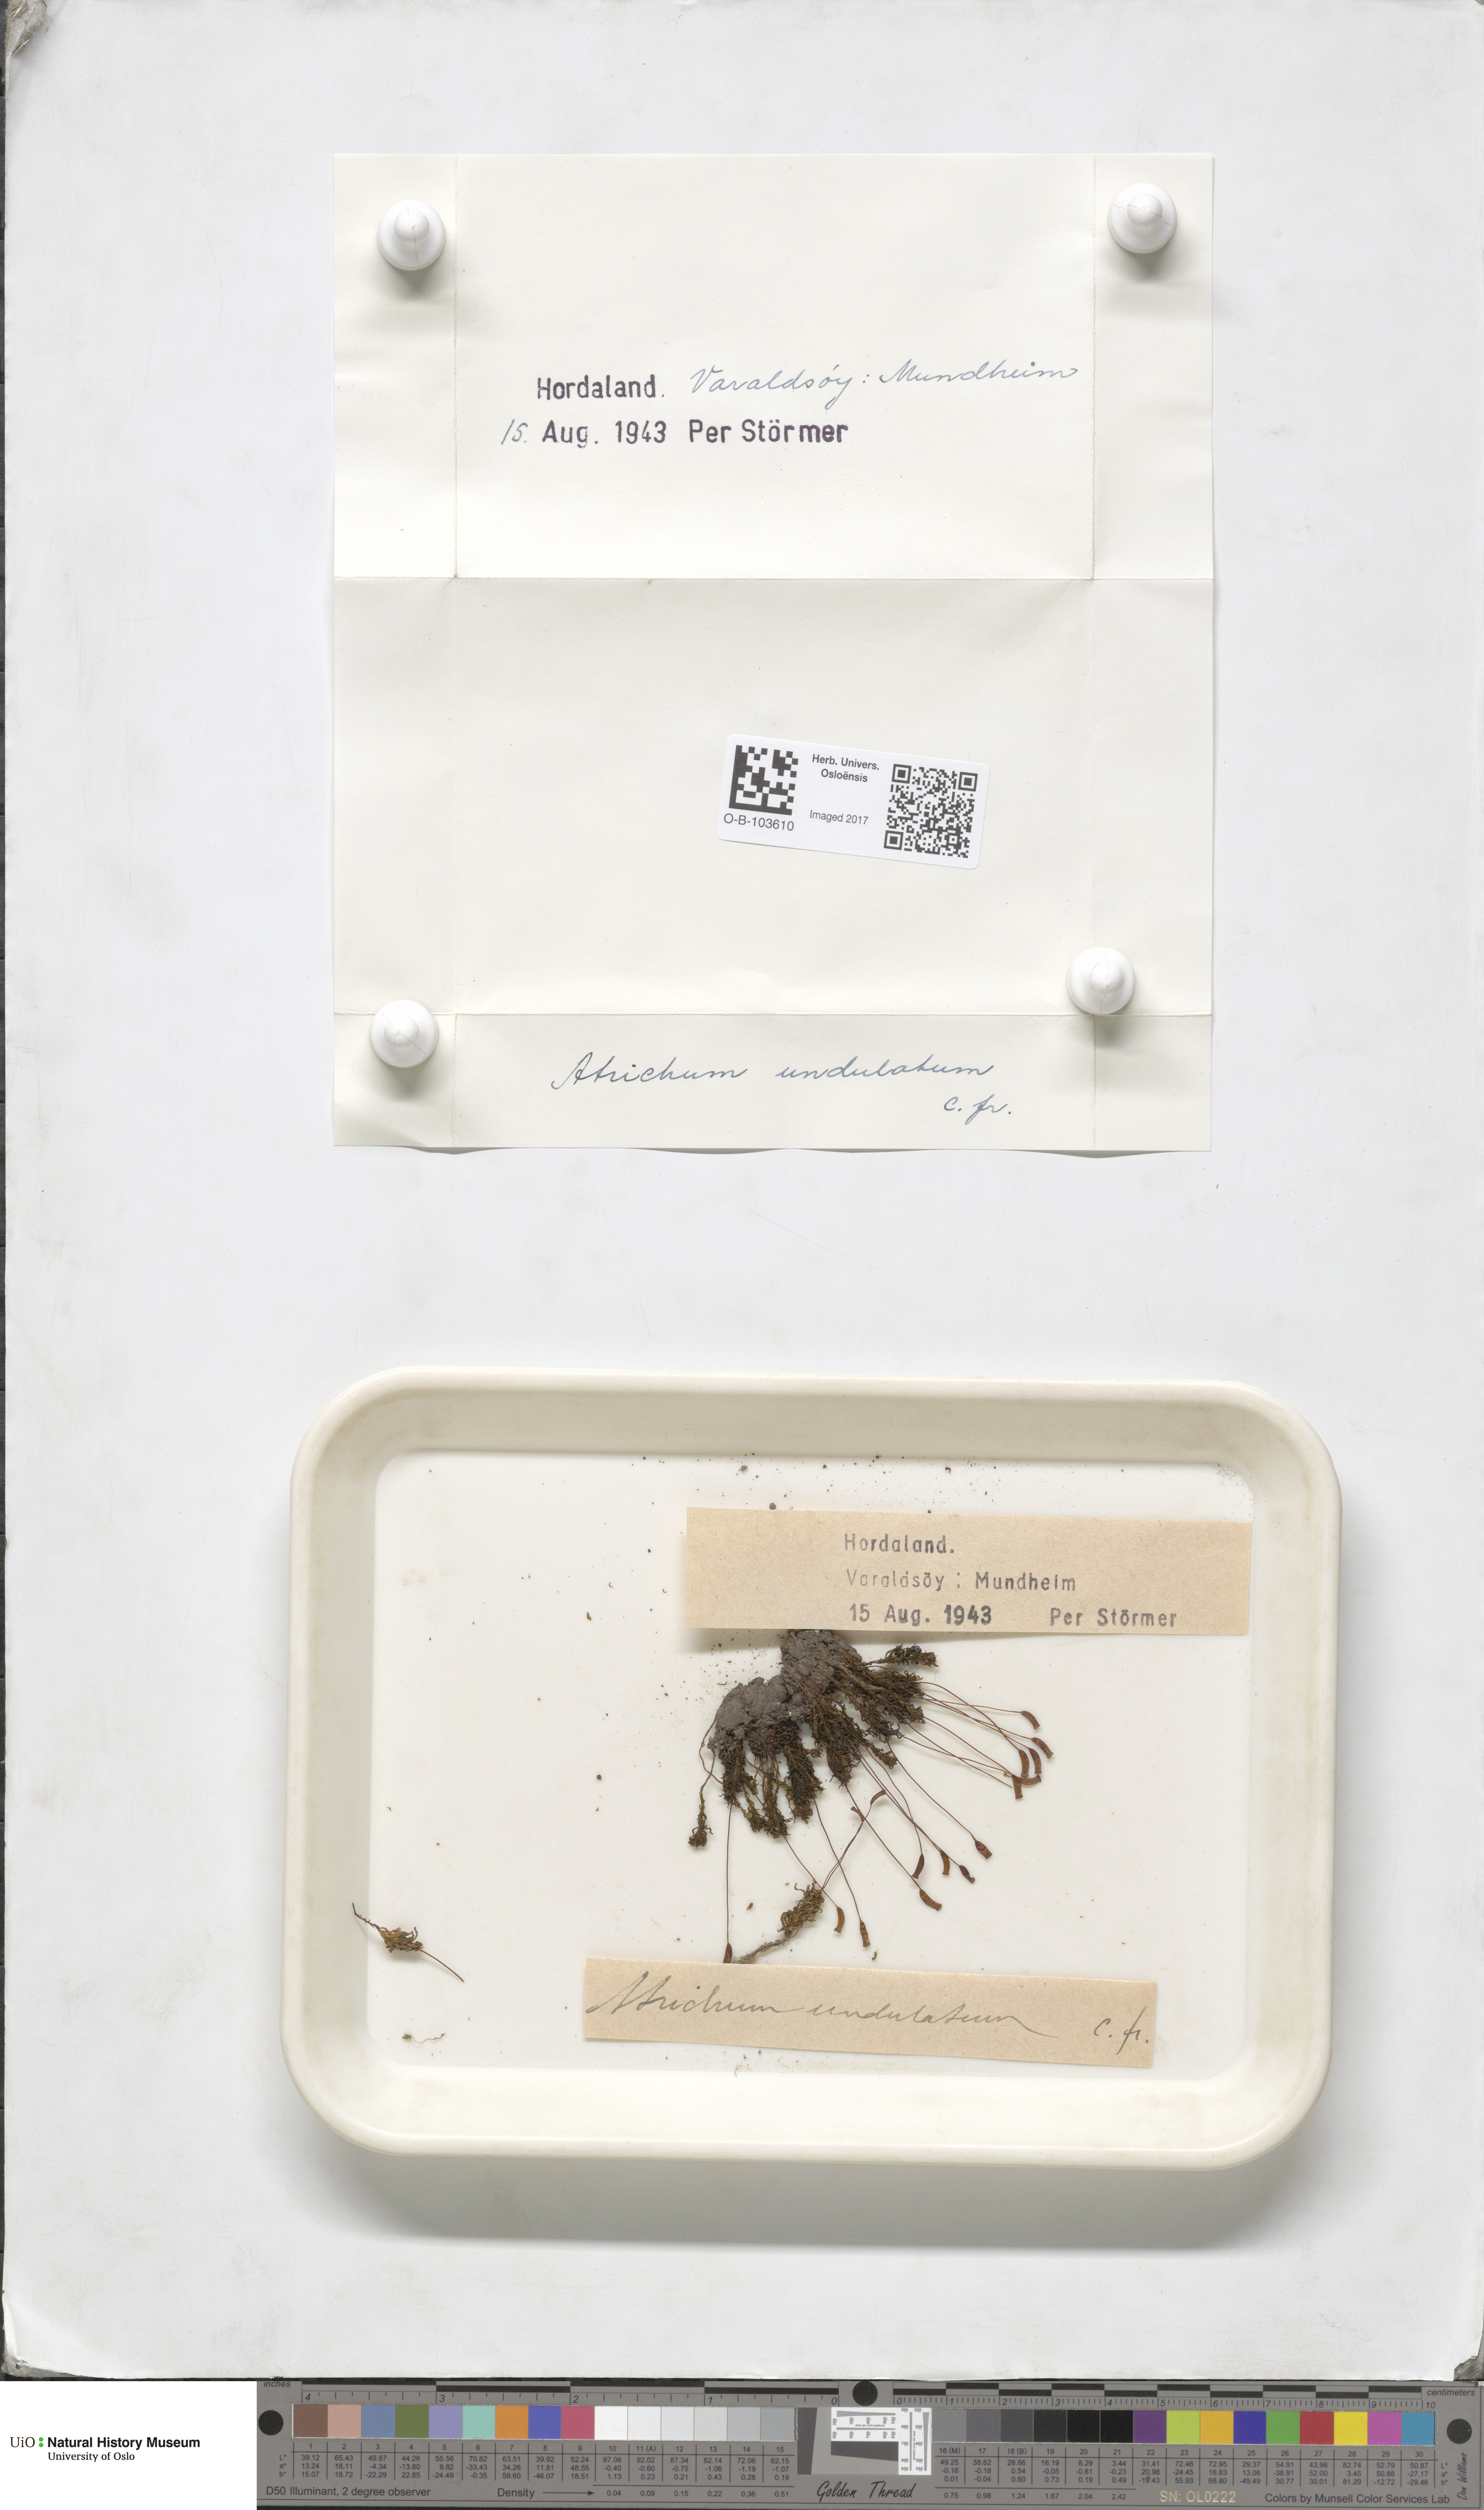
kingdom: Plantae
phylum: Bryophyta
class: Polytrichopsida
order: Polytrichales
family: Polytrichaceae
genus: Atrichum
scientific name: Atrichum undulatum
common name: Common smoothcap
